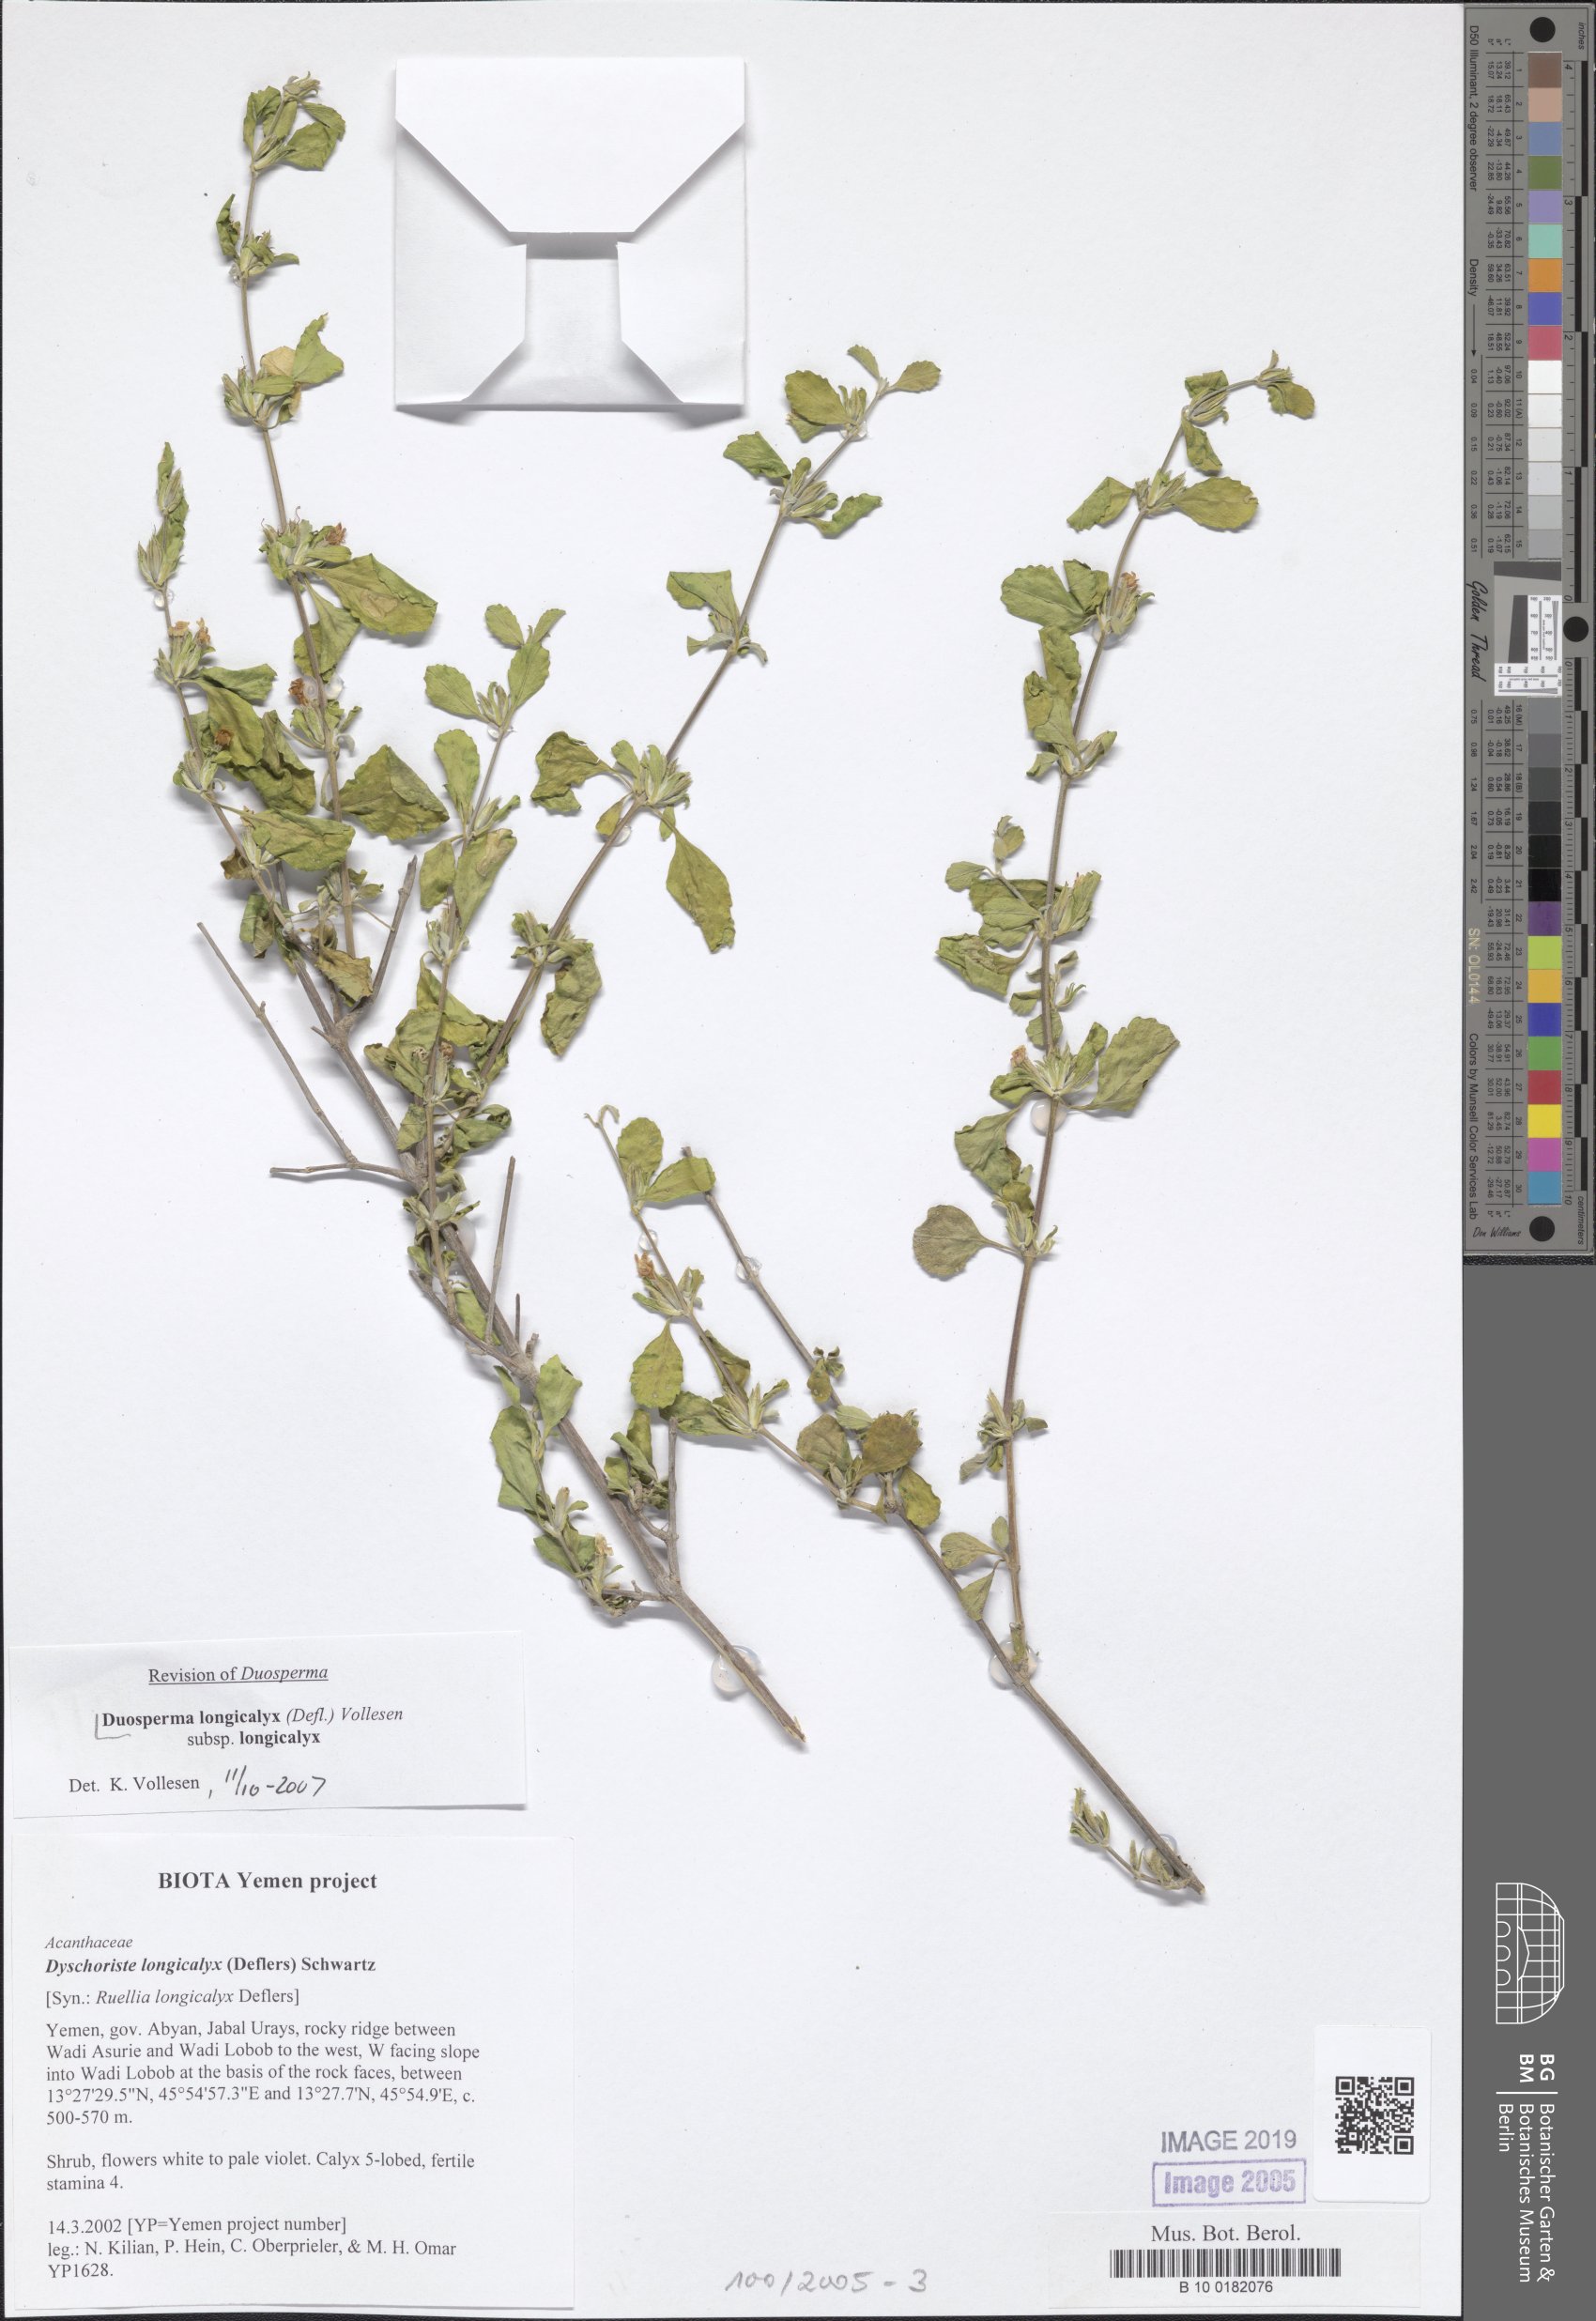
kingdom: Plantae
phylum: Tracheophyta
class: Magnoliopsida
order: Lamiales
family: Acanthaceae
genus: Duosperma
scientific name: Duosperma longicalyx
